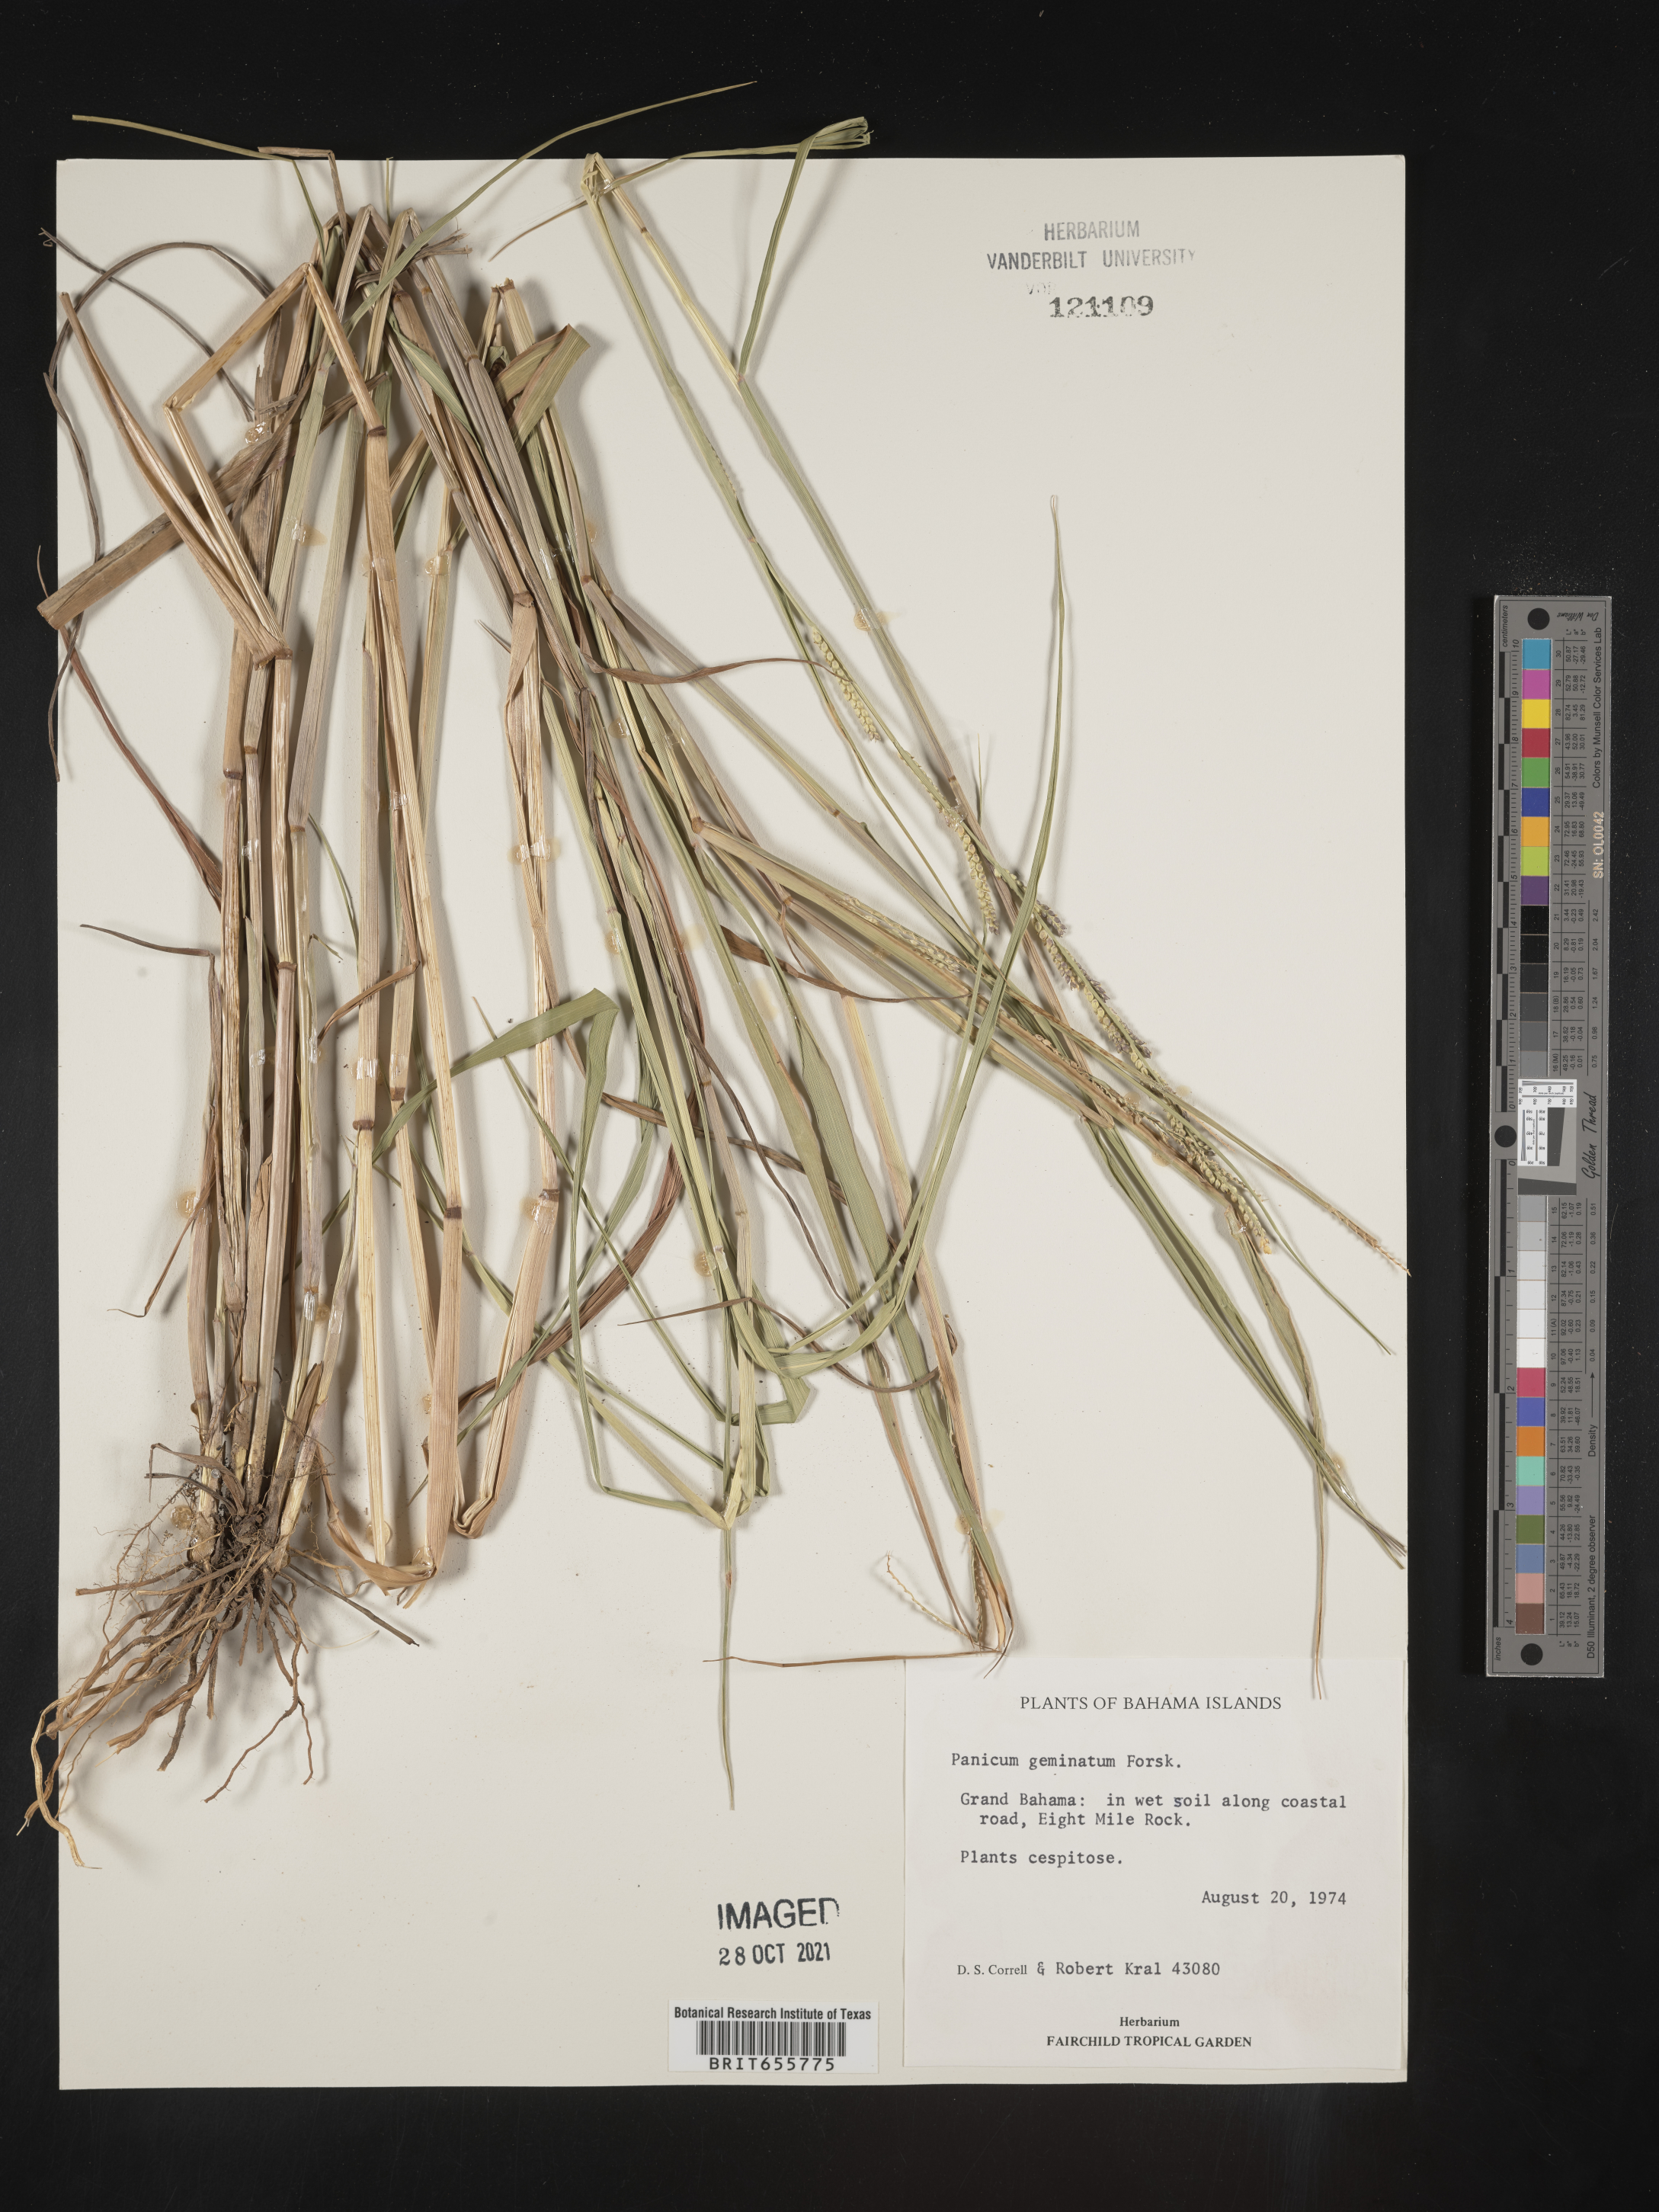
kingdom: Plantae
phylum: Tracheophyta
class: Liliopsida
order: Poales
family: Poaceae
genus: Panicum
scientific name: Panicum
